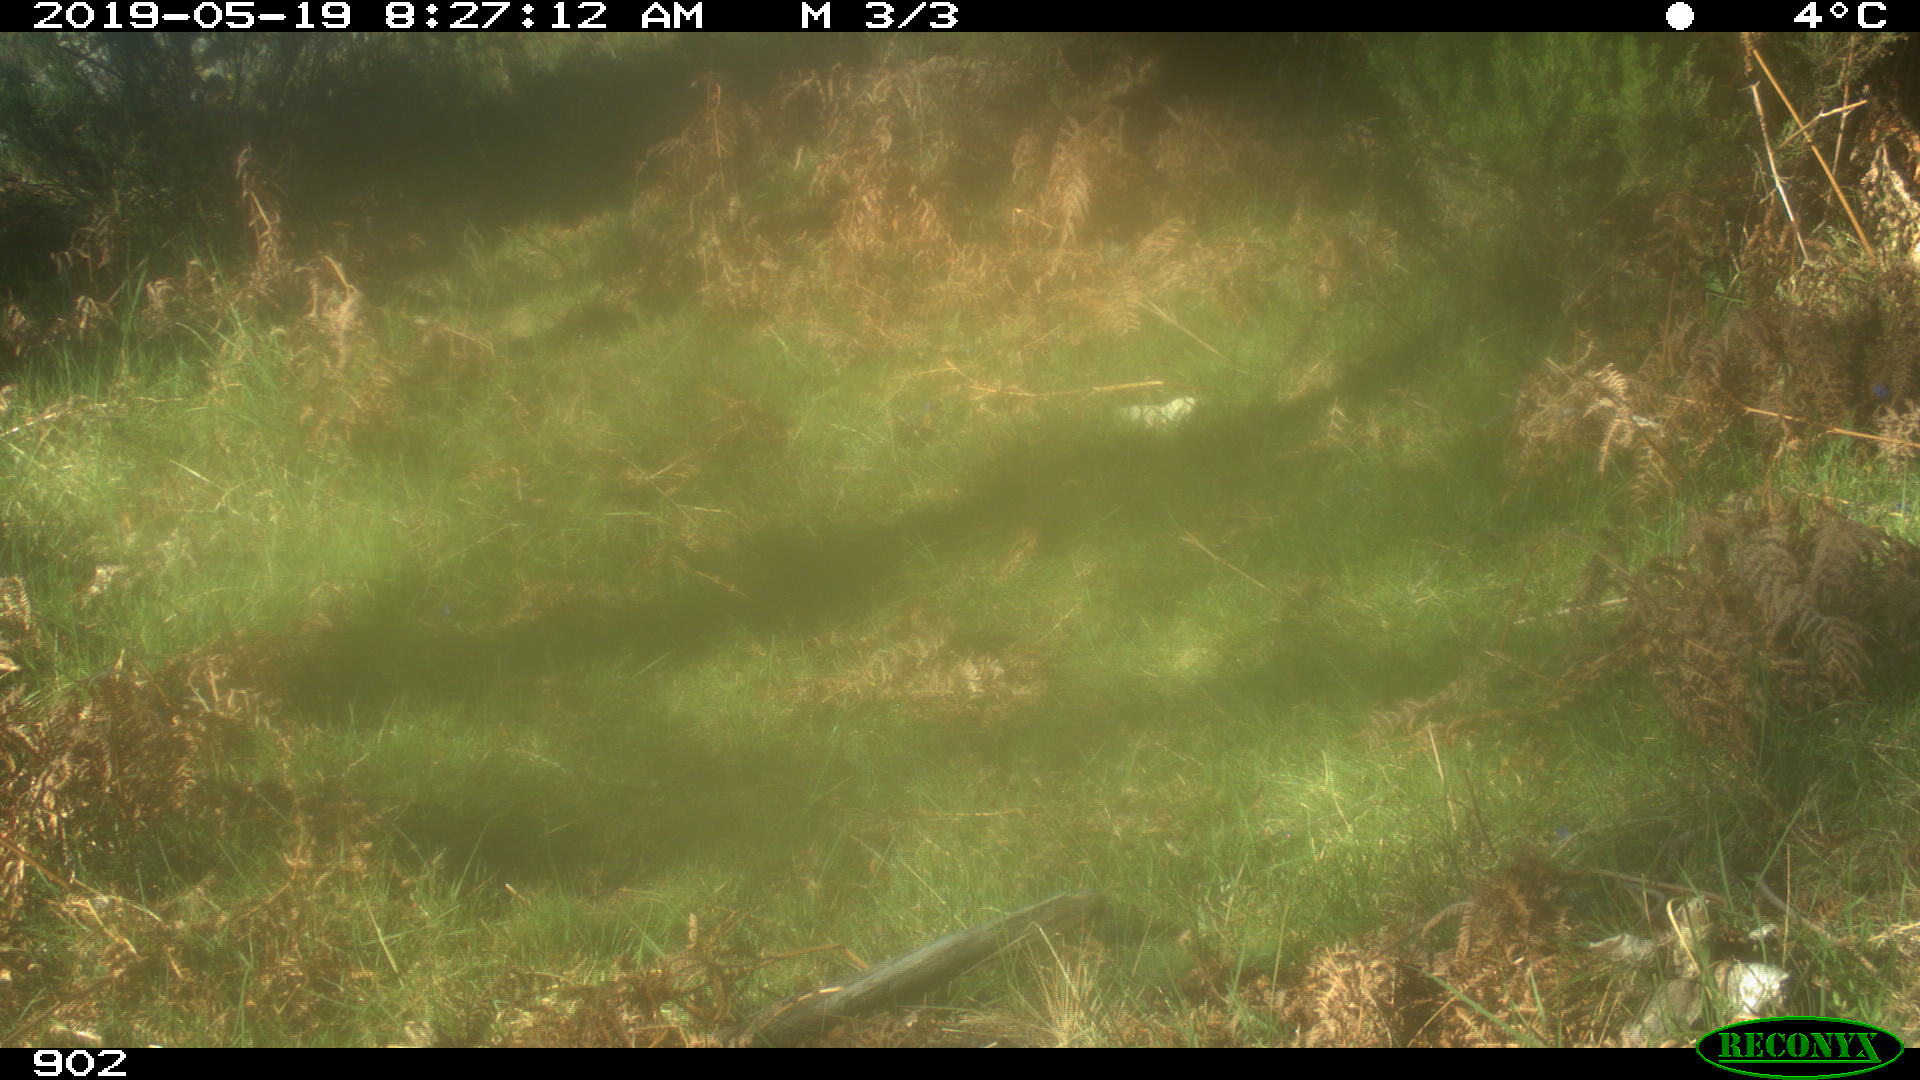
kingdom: Animalia
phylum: Chordata
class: Mammalia
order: Artiodactyla
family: Cervidae
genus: Capreolus
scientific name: Capreolus capreolus
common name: Western roe deer
